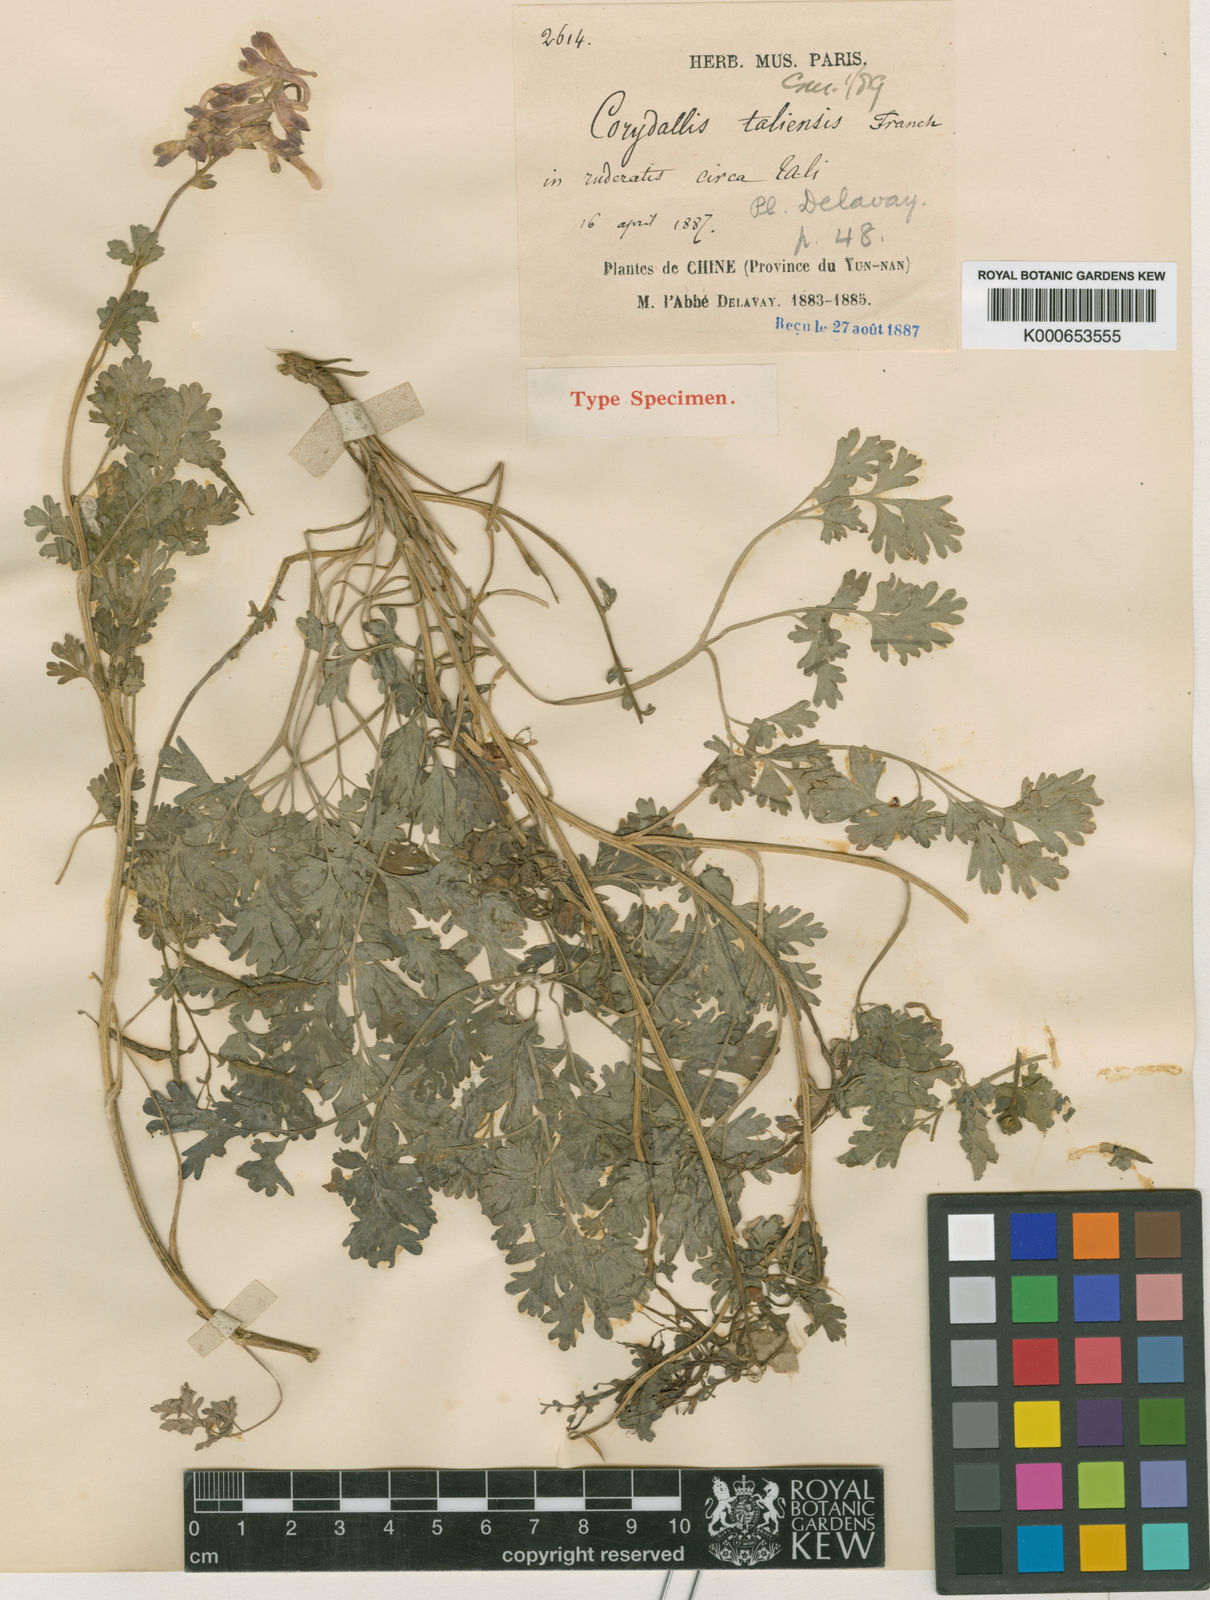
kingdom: Plantae
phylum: Tracheophyta
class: Magnoliopsida
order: Ranunculales
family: Papaveraceae
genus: Corydalis
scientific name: Corydalis taliensis
